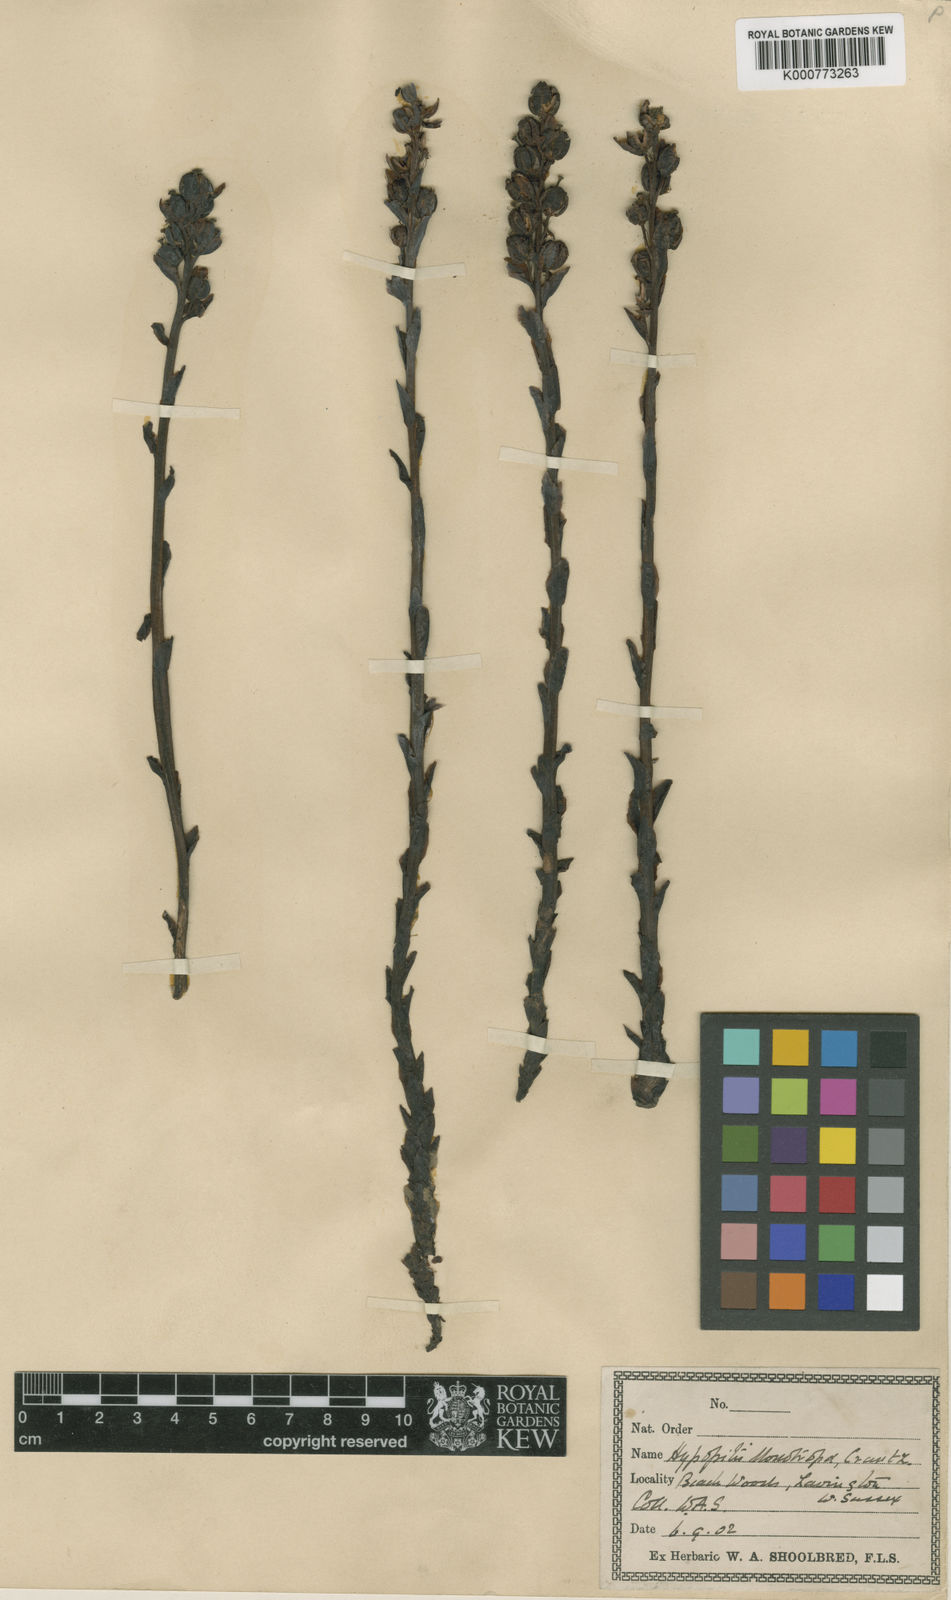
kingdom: Plantae
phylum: Tracheophyta
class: Magnoliopsida
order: Ericales
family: Ericaceae
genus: Monotropa
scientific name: Monotropa
